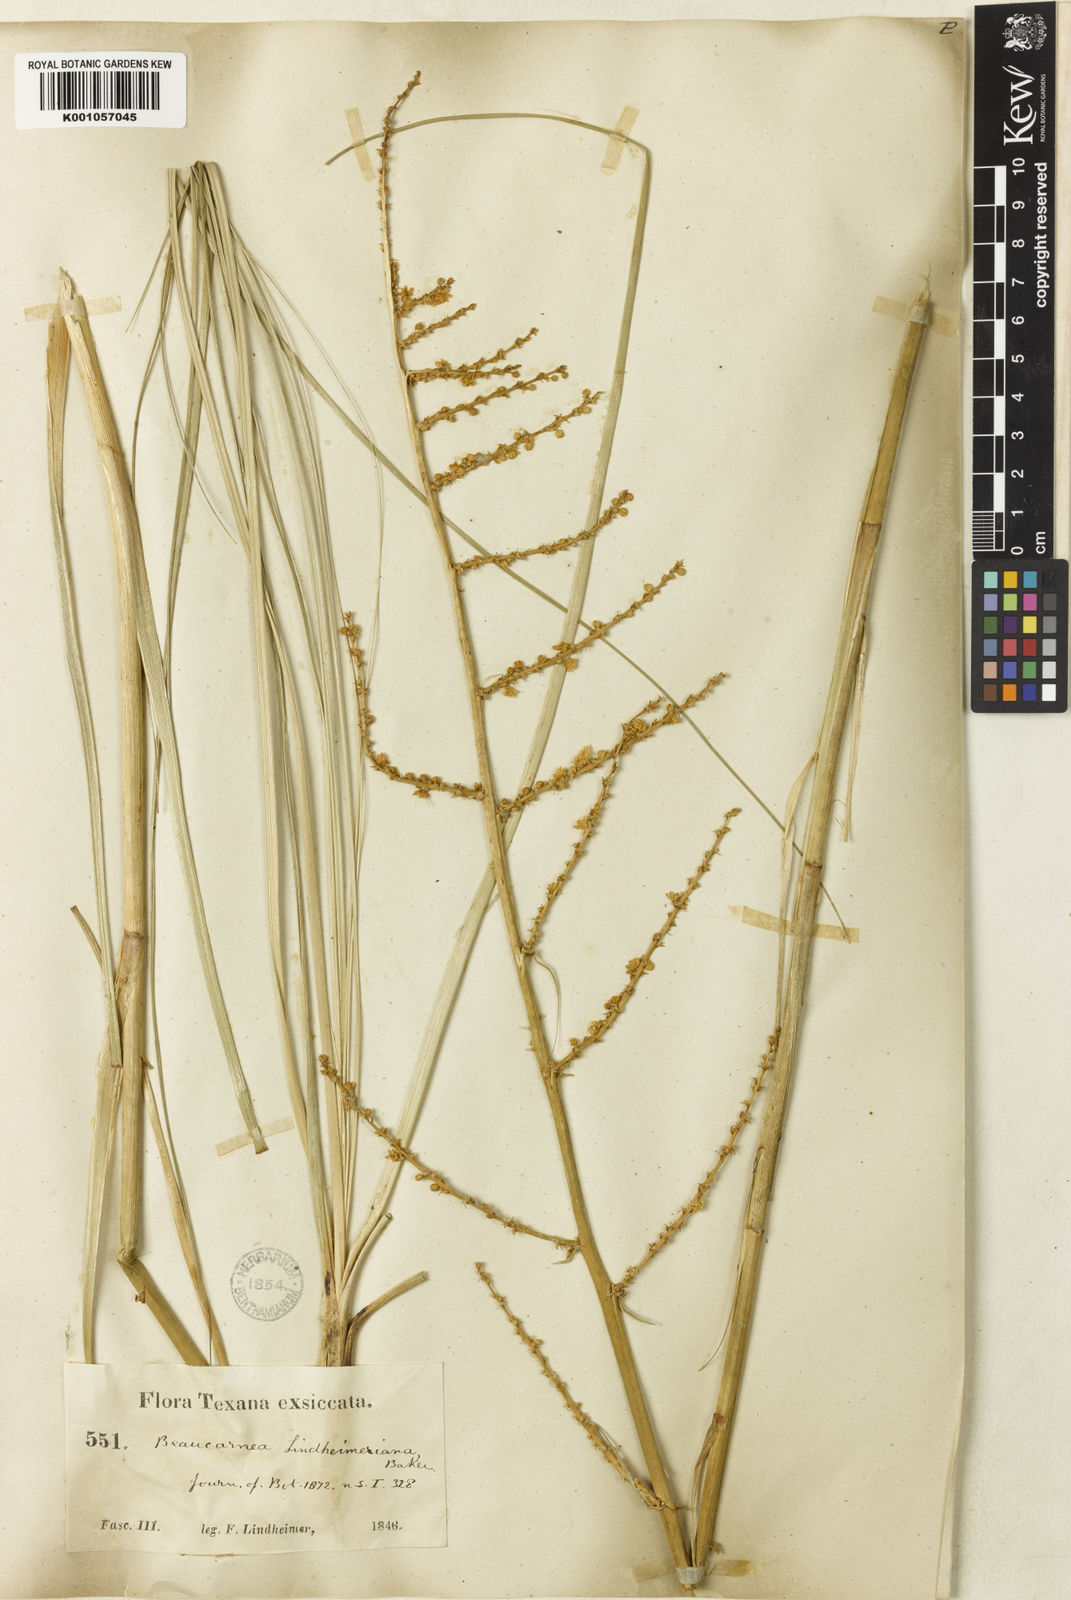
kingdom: Plantae
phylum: Tracheophyta
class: Liliopsida
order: Asparagales
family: Asparagaceae
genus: Nolina
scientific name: Nolina lindheimeriana
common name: Lindheimer's bear-grass
